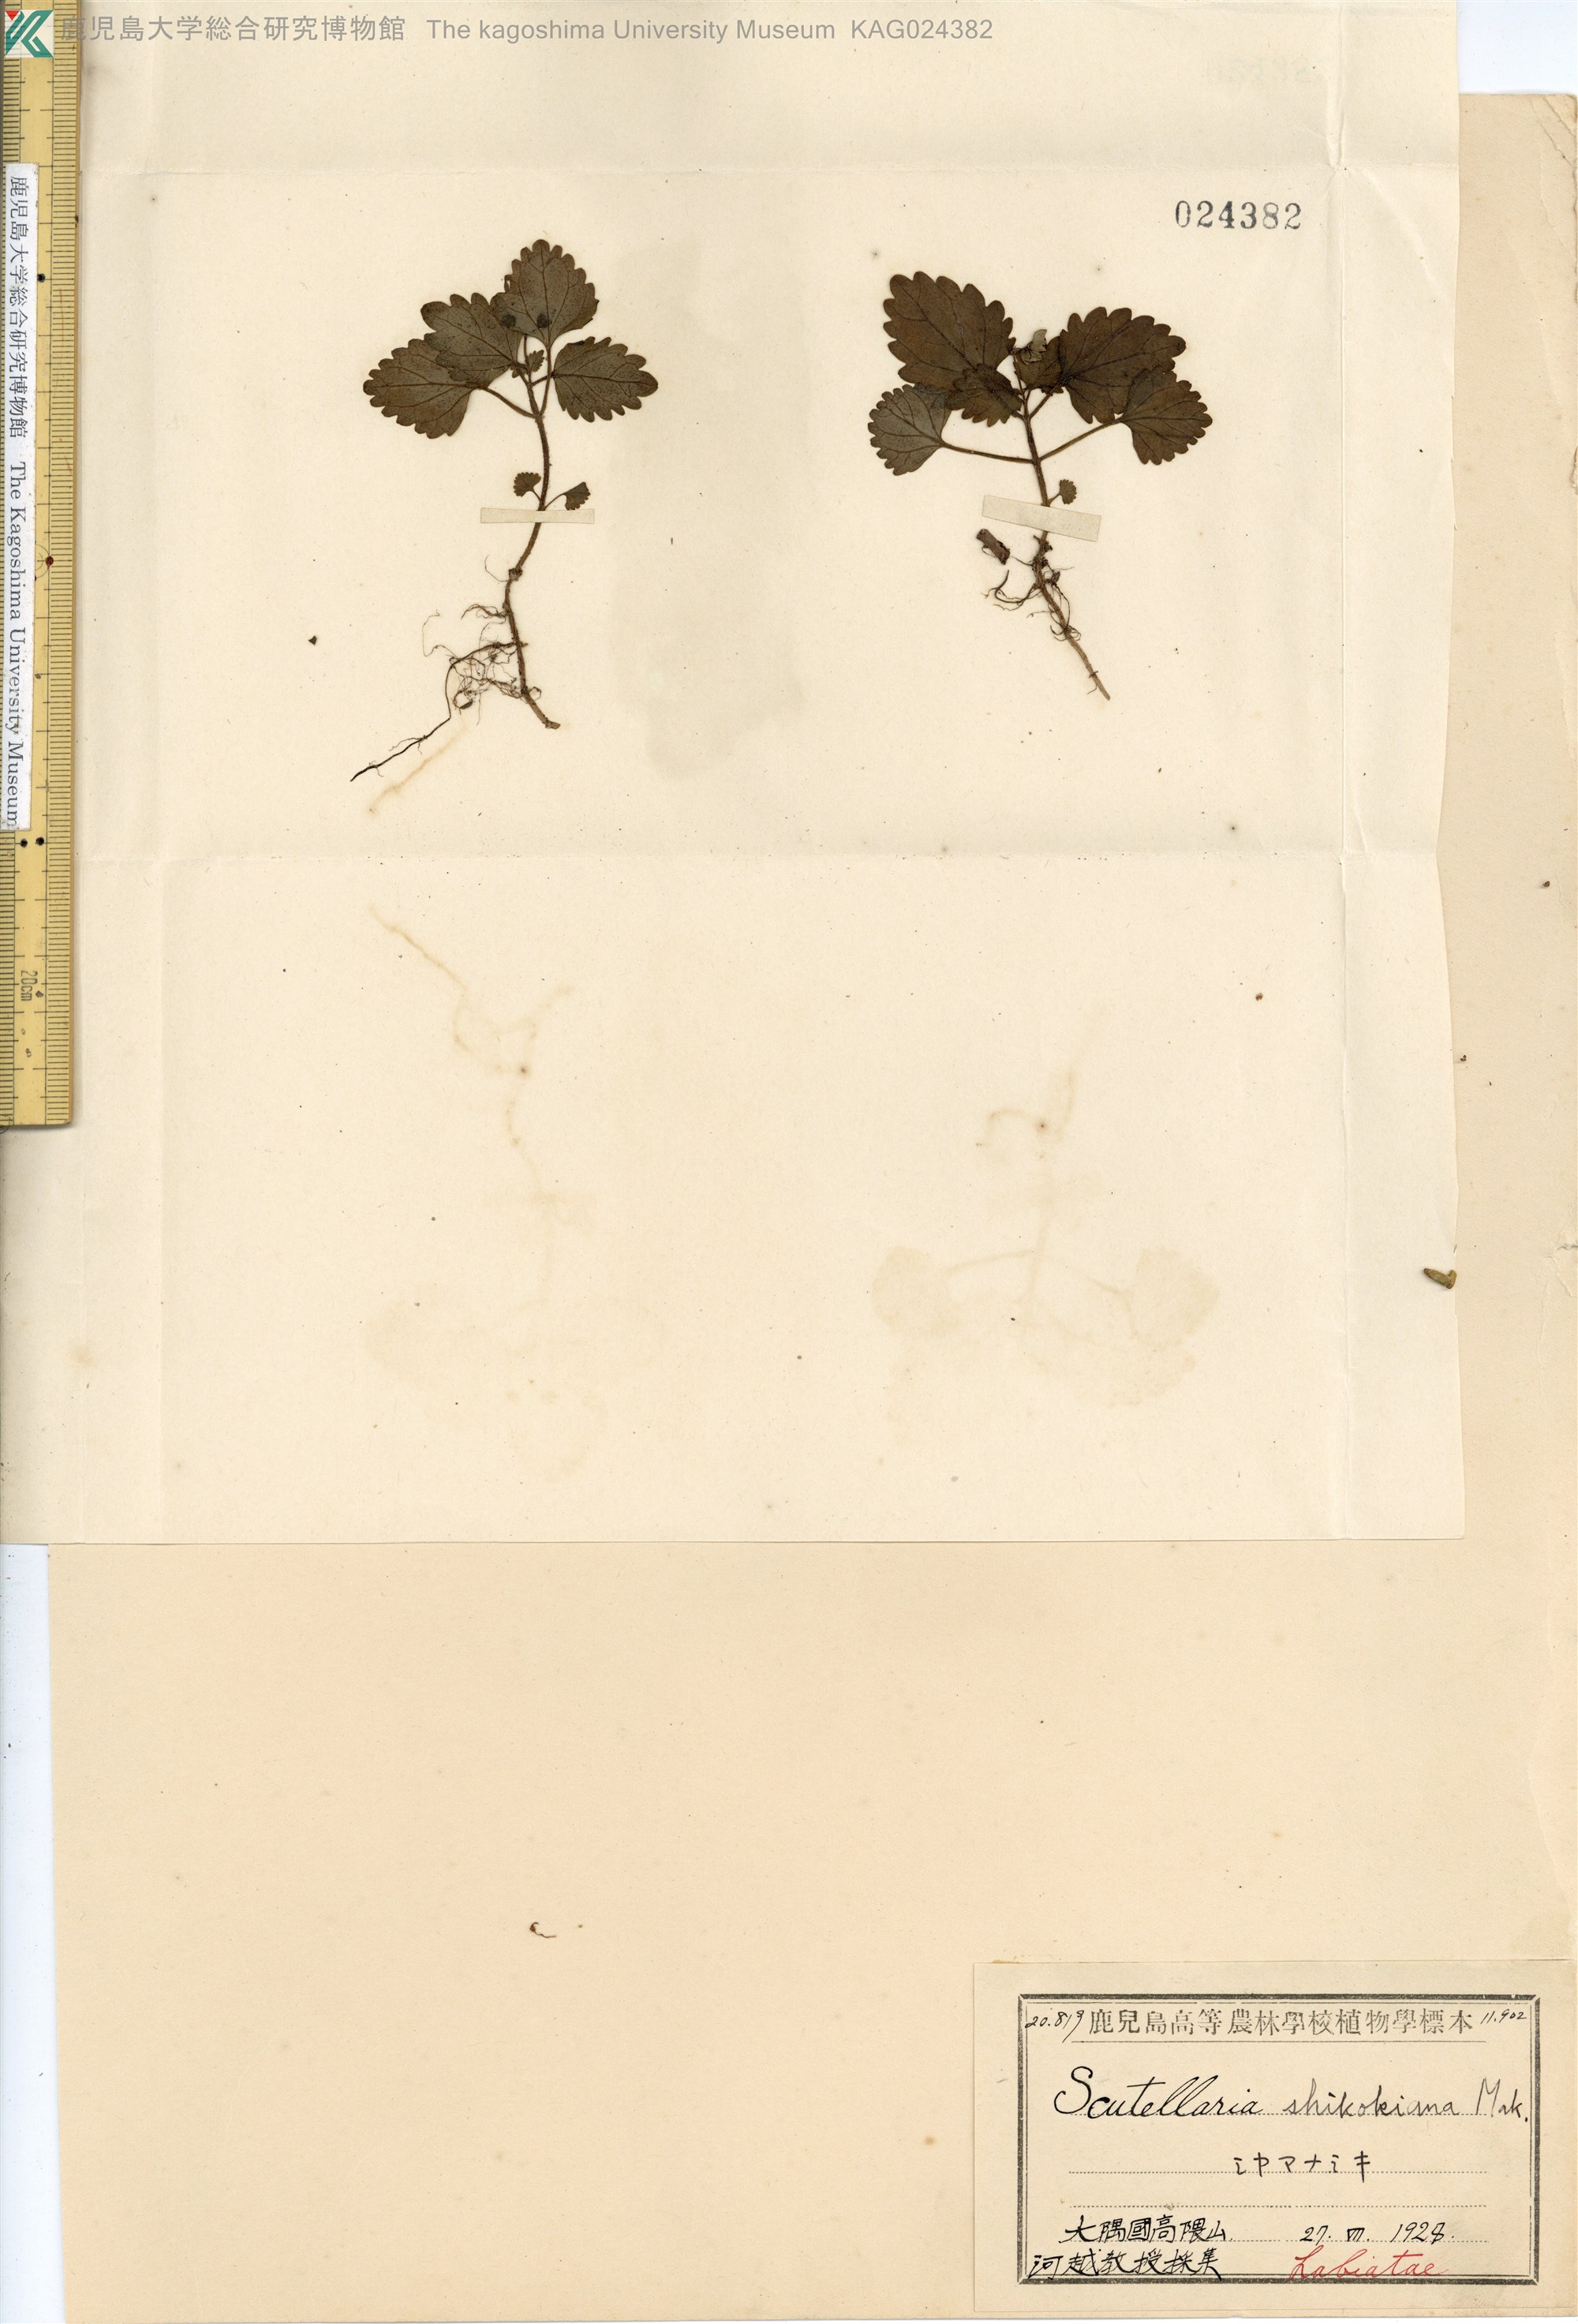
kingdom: Plantae
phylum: Tracheophyta
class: Magnoliopsida
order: Lamiales
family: Lamiaceae
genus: Scutellaria
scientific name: Scutellaria shikokiana
